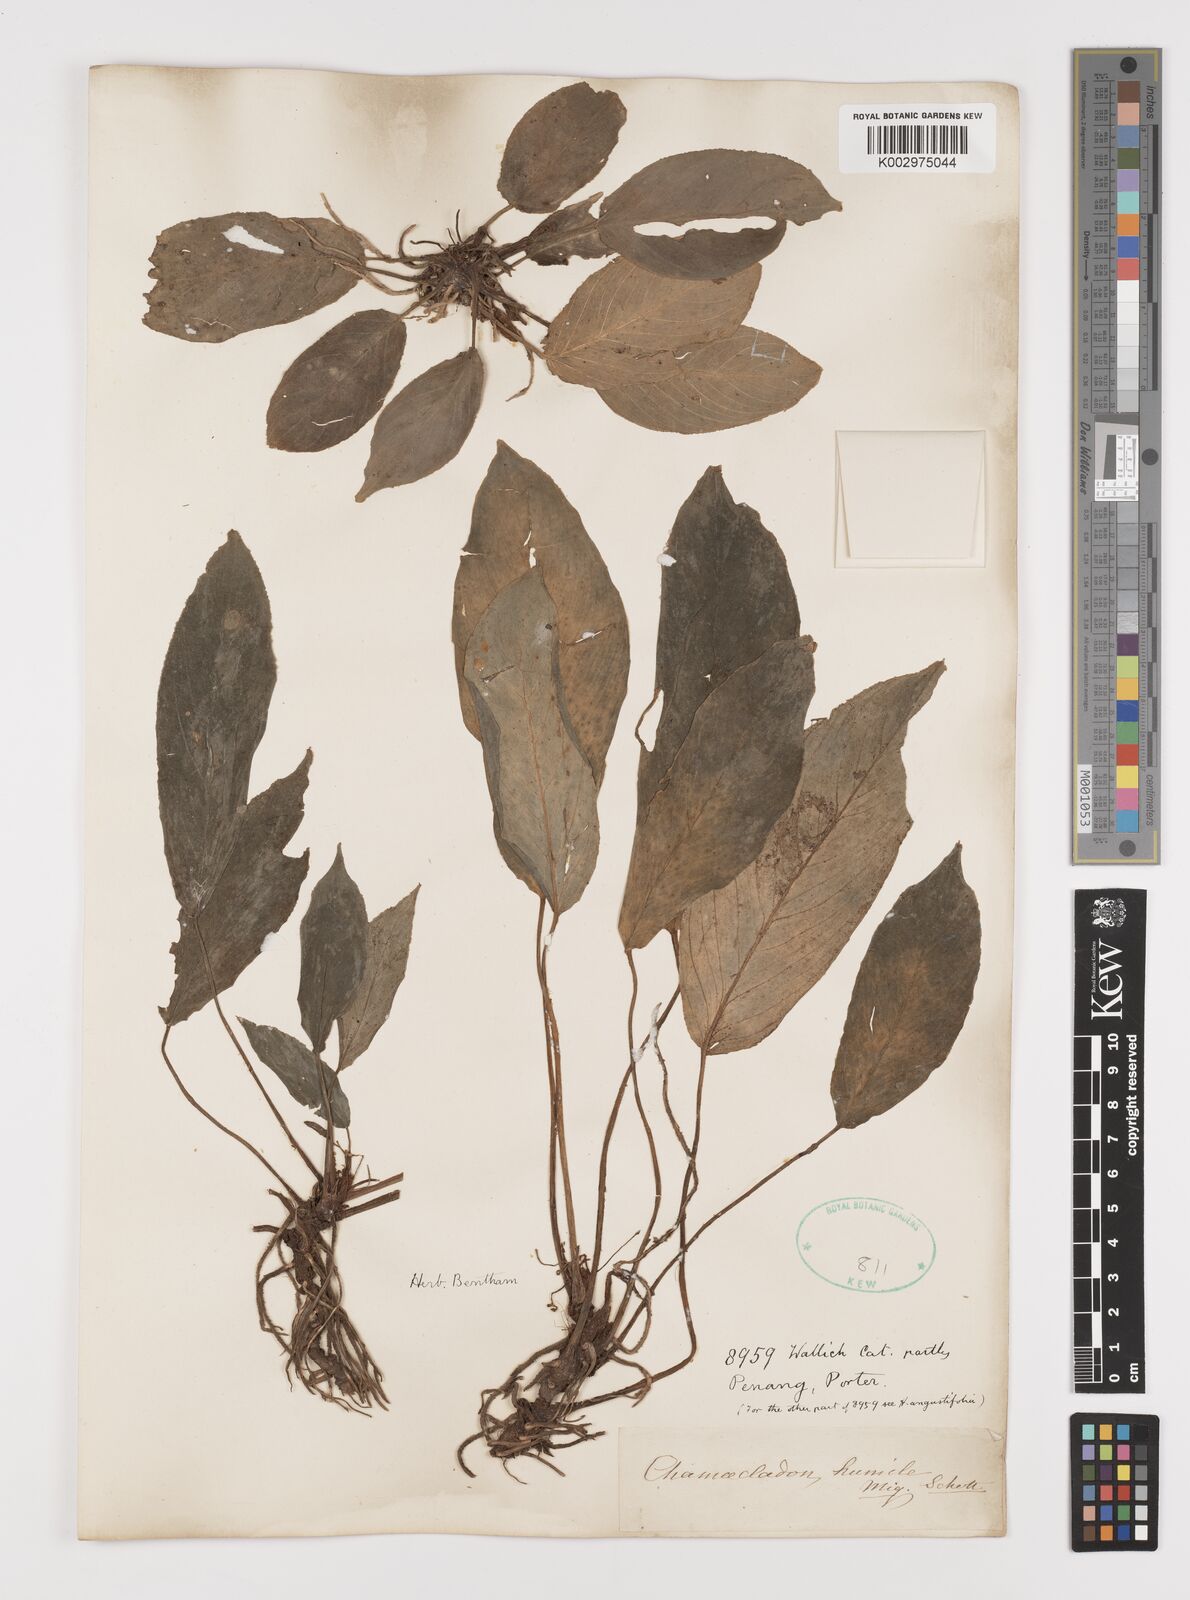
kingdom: Plantae
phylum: Tracheophyta
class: Liliopsida
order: Alismatales
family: Araceae
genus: Homalomena
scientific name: Homalomena humilis
